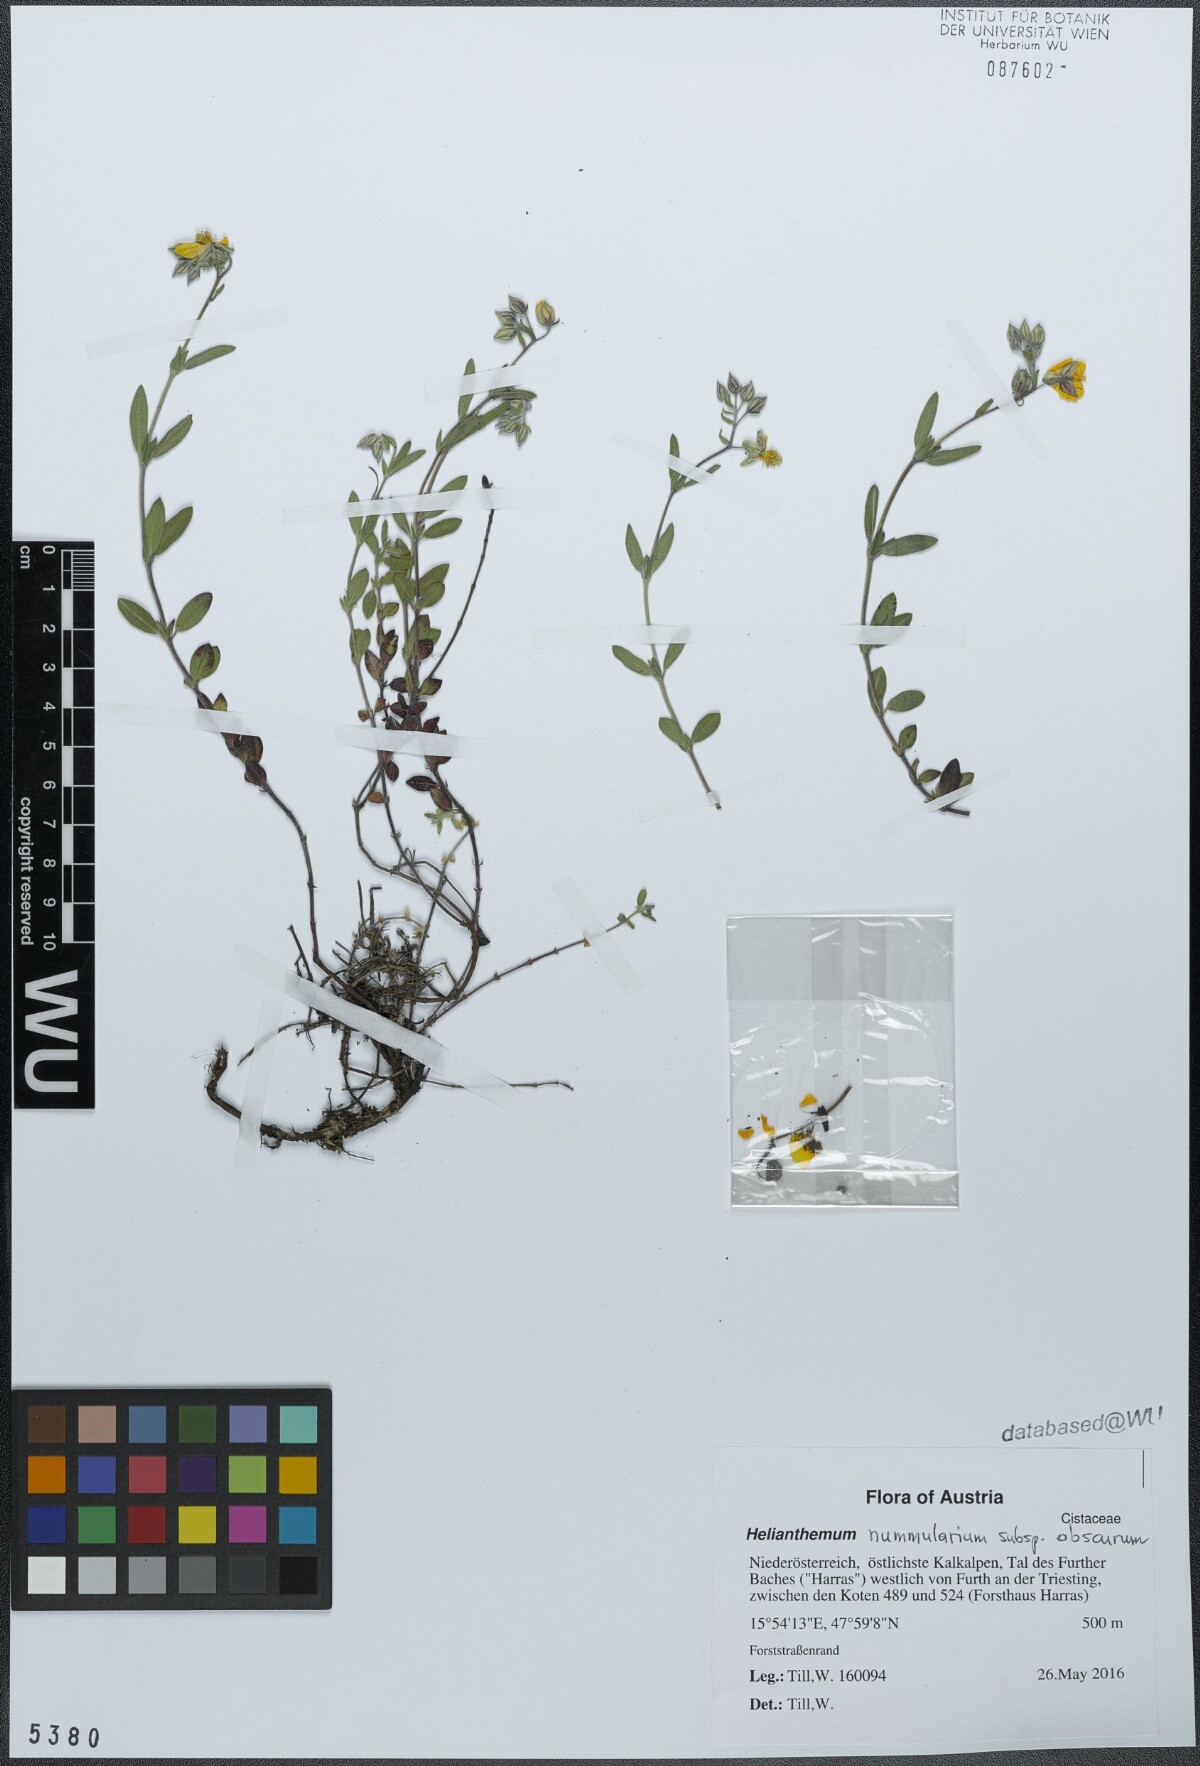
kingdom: Plantae
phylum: Tracheophyta
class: Magnoliopsida
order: Malvales
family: Cistaceae
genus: Helianthemum
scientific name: Helianthemum nummularium
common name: Common rock-rose
